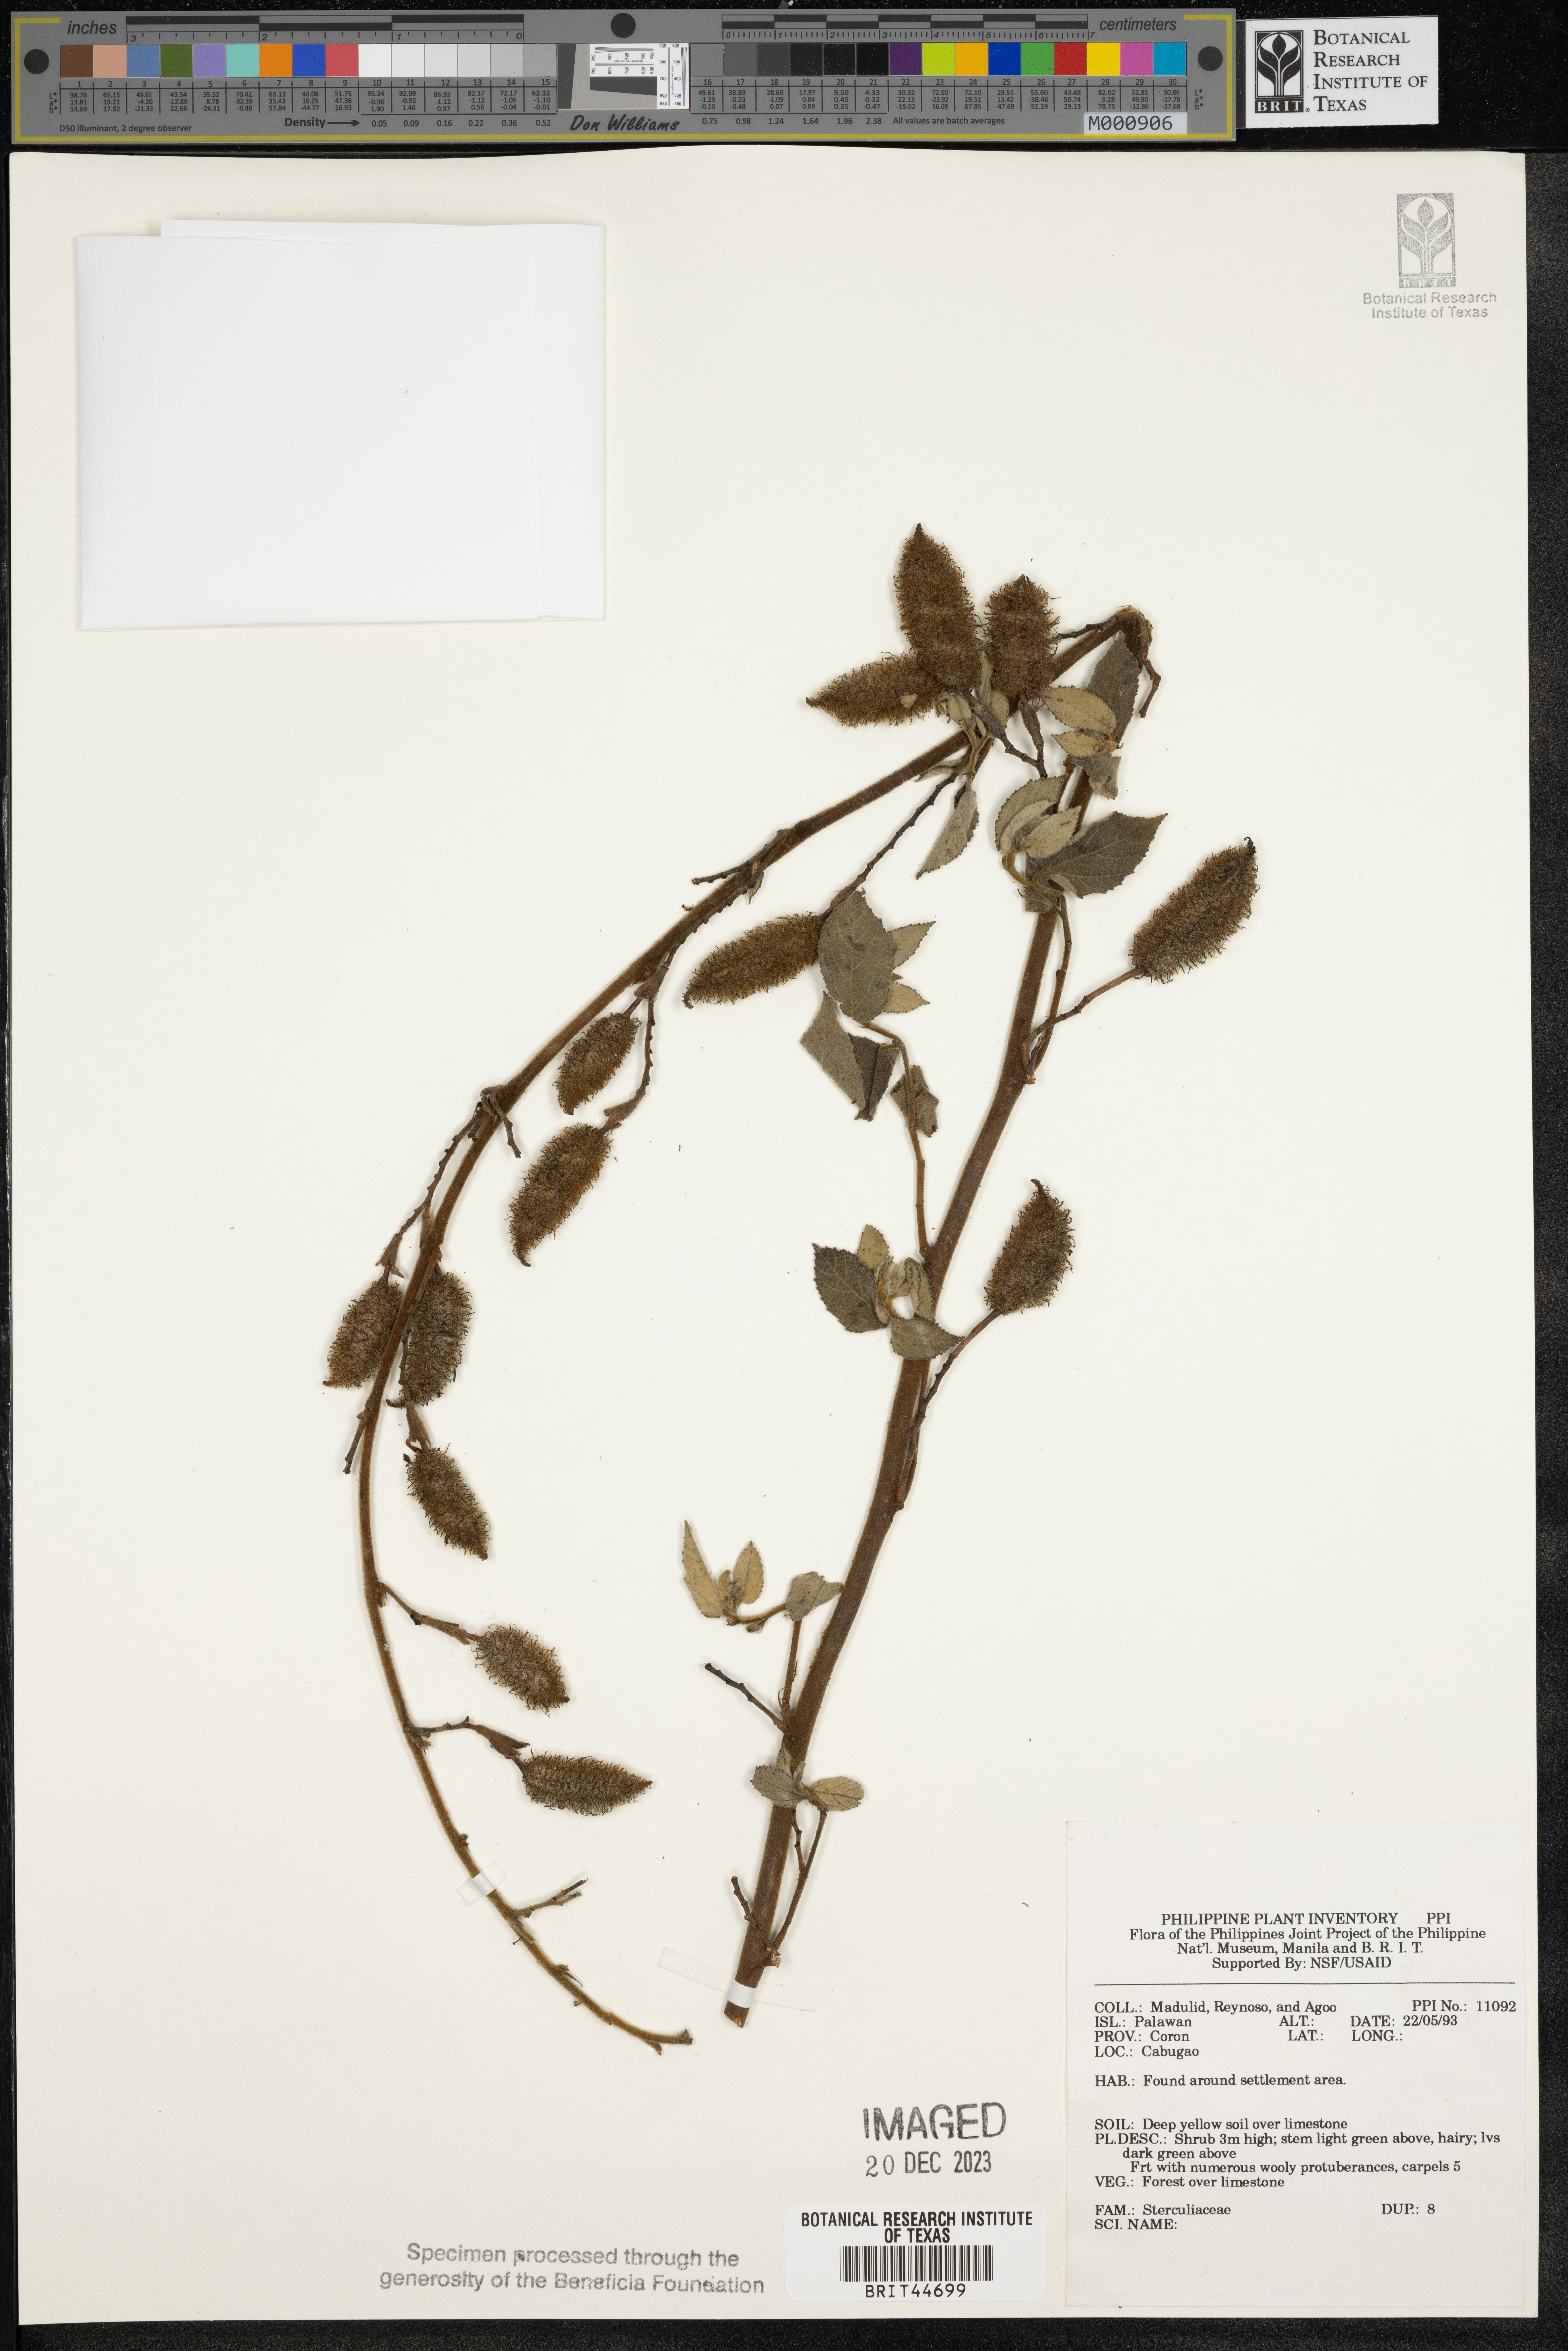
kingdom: Plantae
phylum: Tracheophyta
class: Magnoliopsida
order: Malvales
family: Sterculiaceae
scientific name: Sterculiaceae
